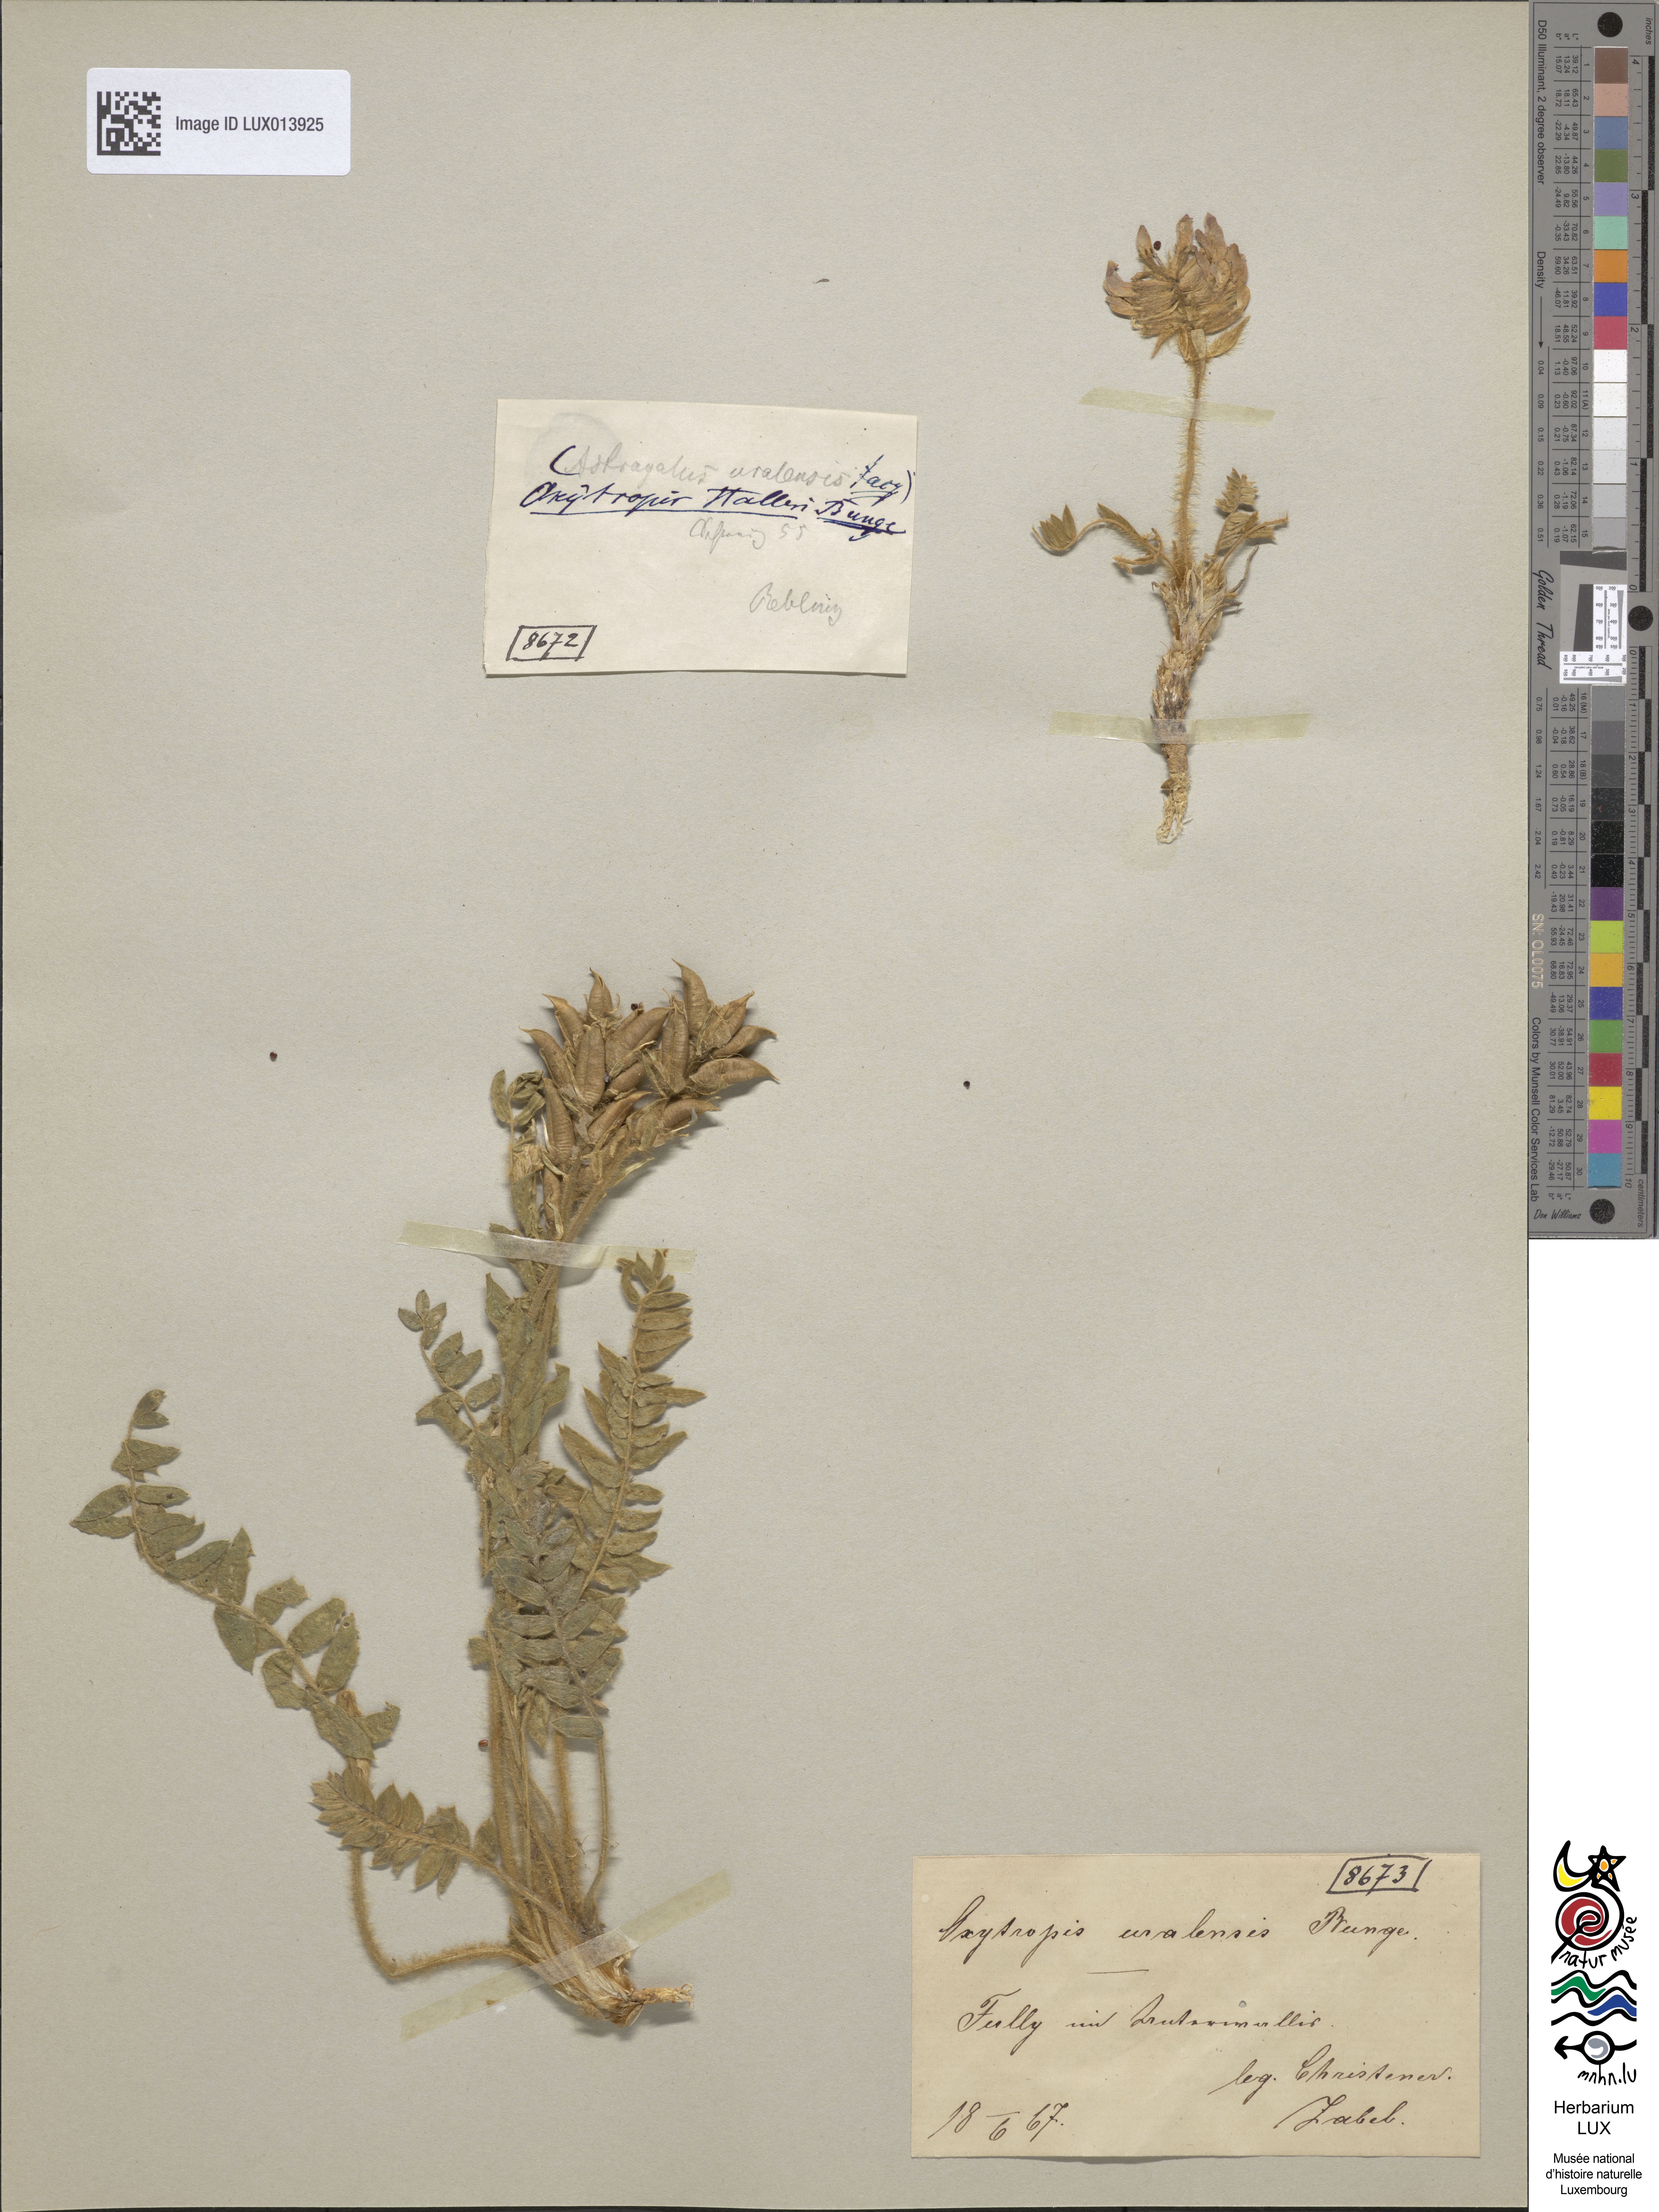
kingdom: Plantae
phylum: Tracheophyta
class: Magnoliopsida
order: Fabales
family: Fabaceae
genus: Oxytropis
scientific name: Oxytropis halleri
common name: Purple oxytropis
